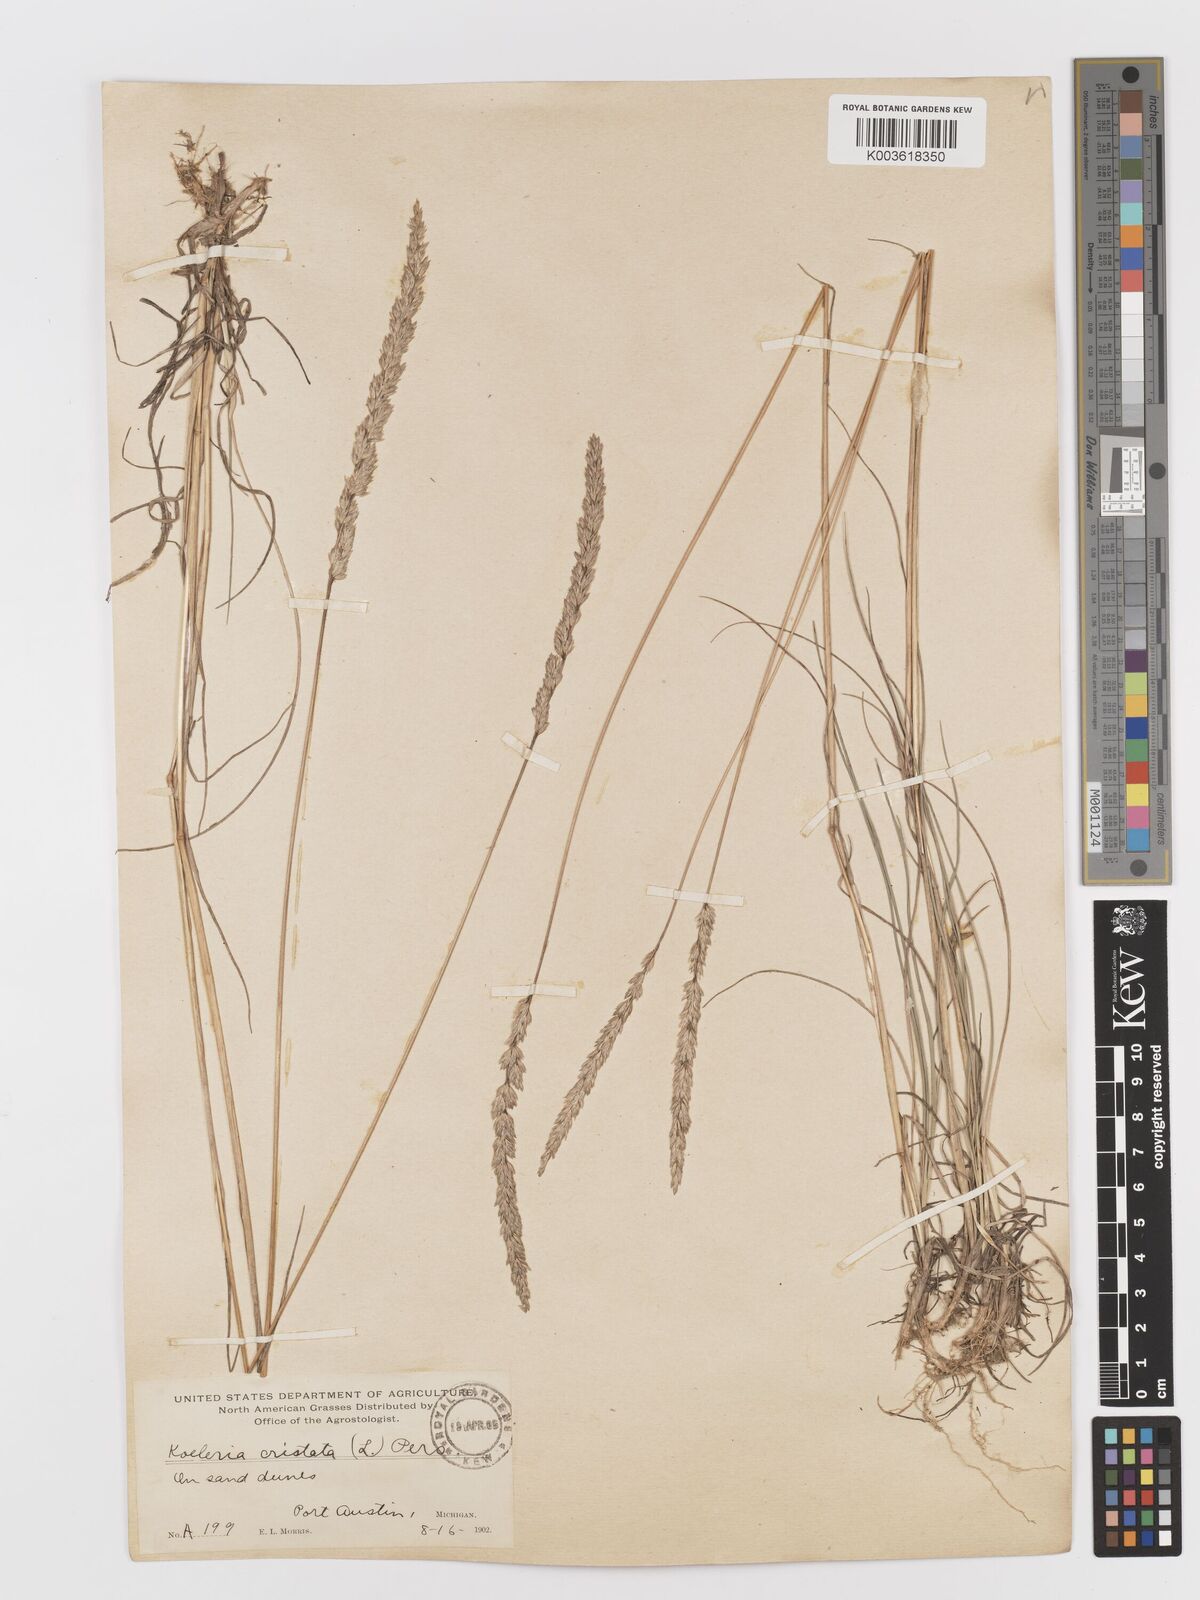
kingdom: Plantae
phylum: Tracheophyta
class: Liliopsida
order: Poales
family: Poaceae
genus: Koeleria
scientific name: Koeleria
